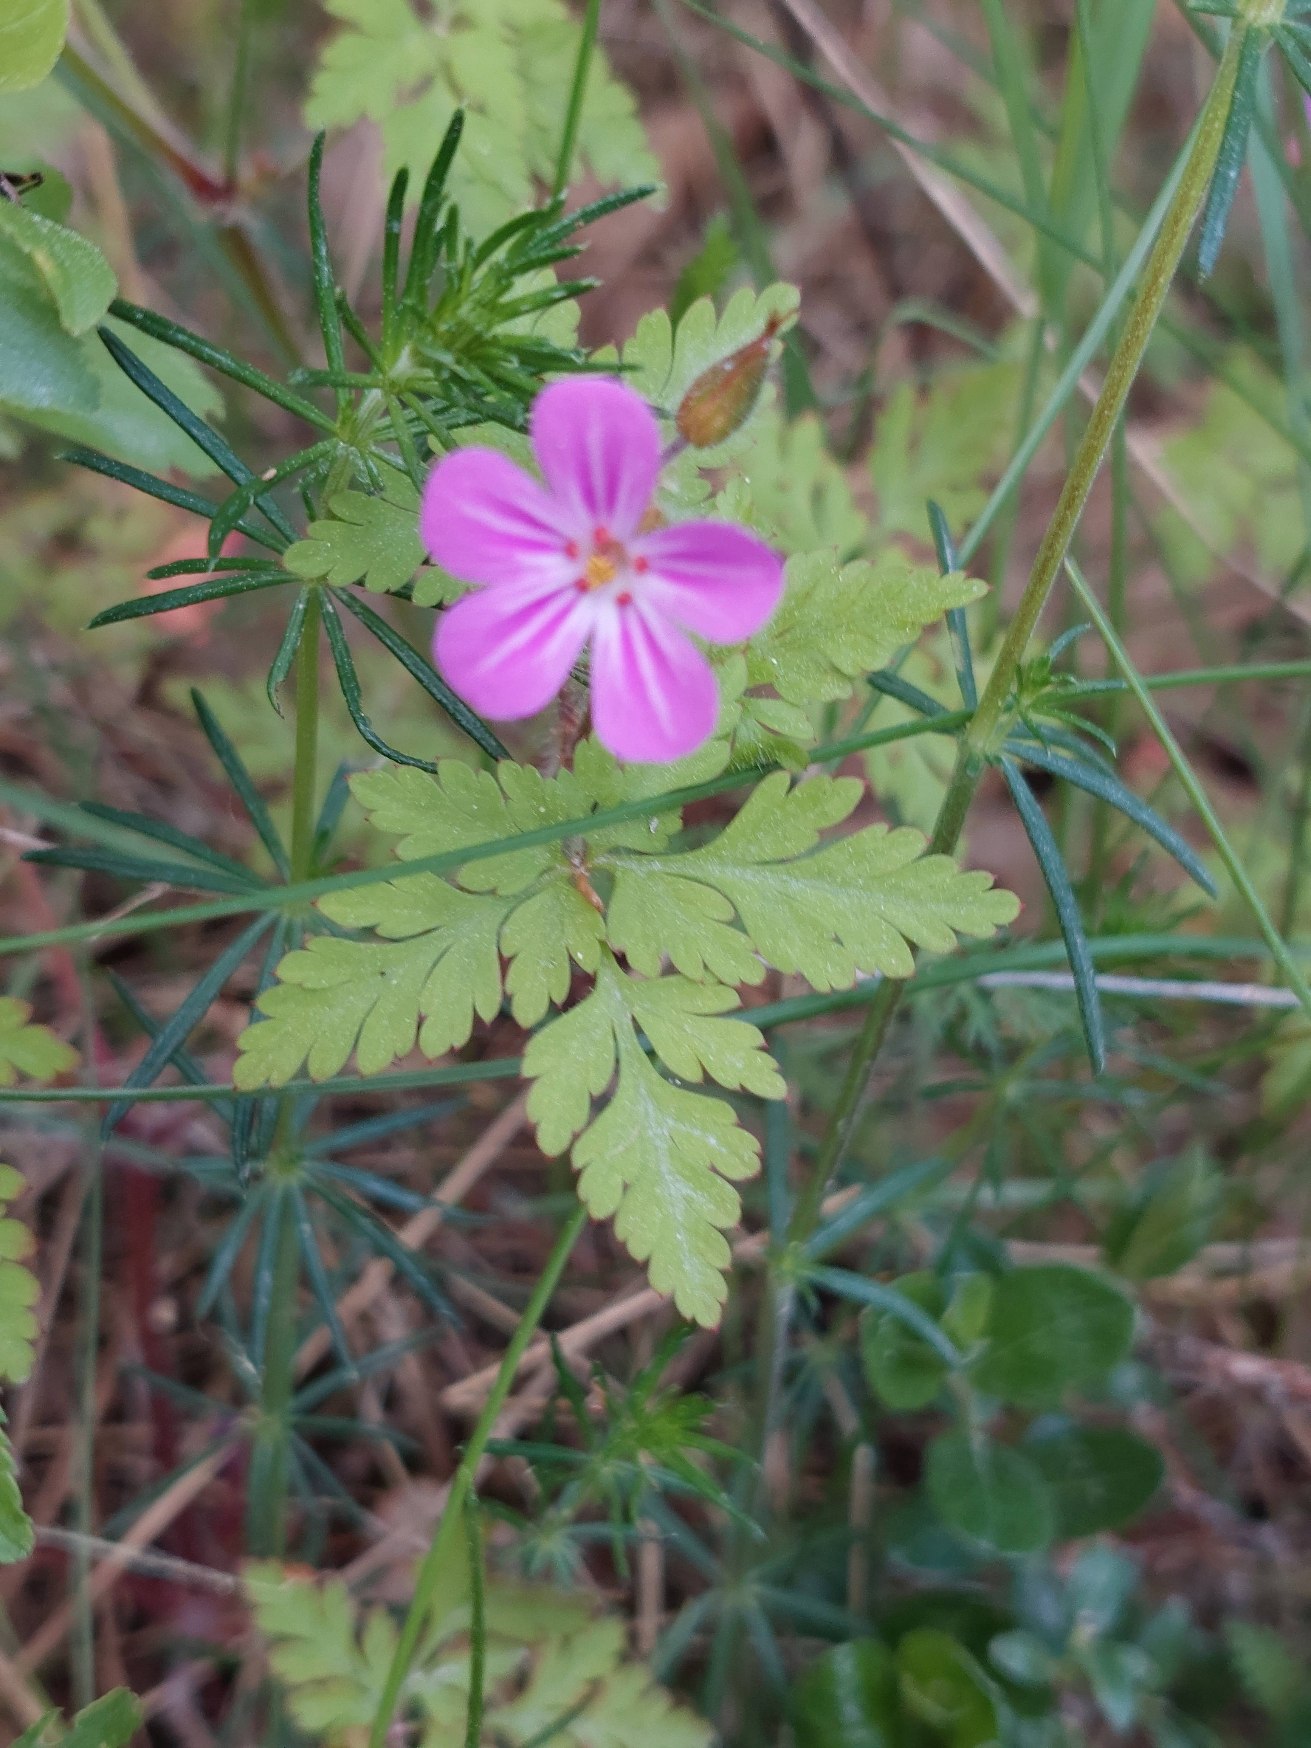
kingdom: Plantae
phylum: Tracheophyta
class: Magnoliopsida
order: Geraniales
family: Geraniaceae
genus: Geranium
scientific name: Geranium robertianum
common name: Stinkende storkenæb
